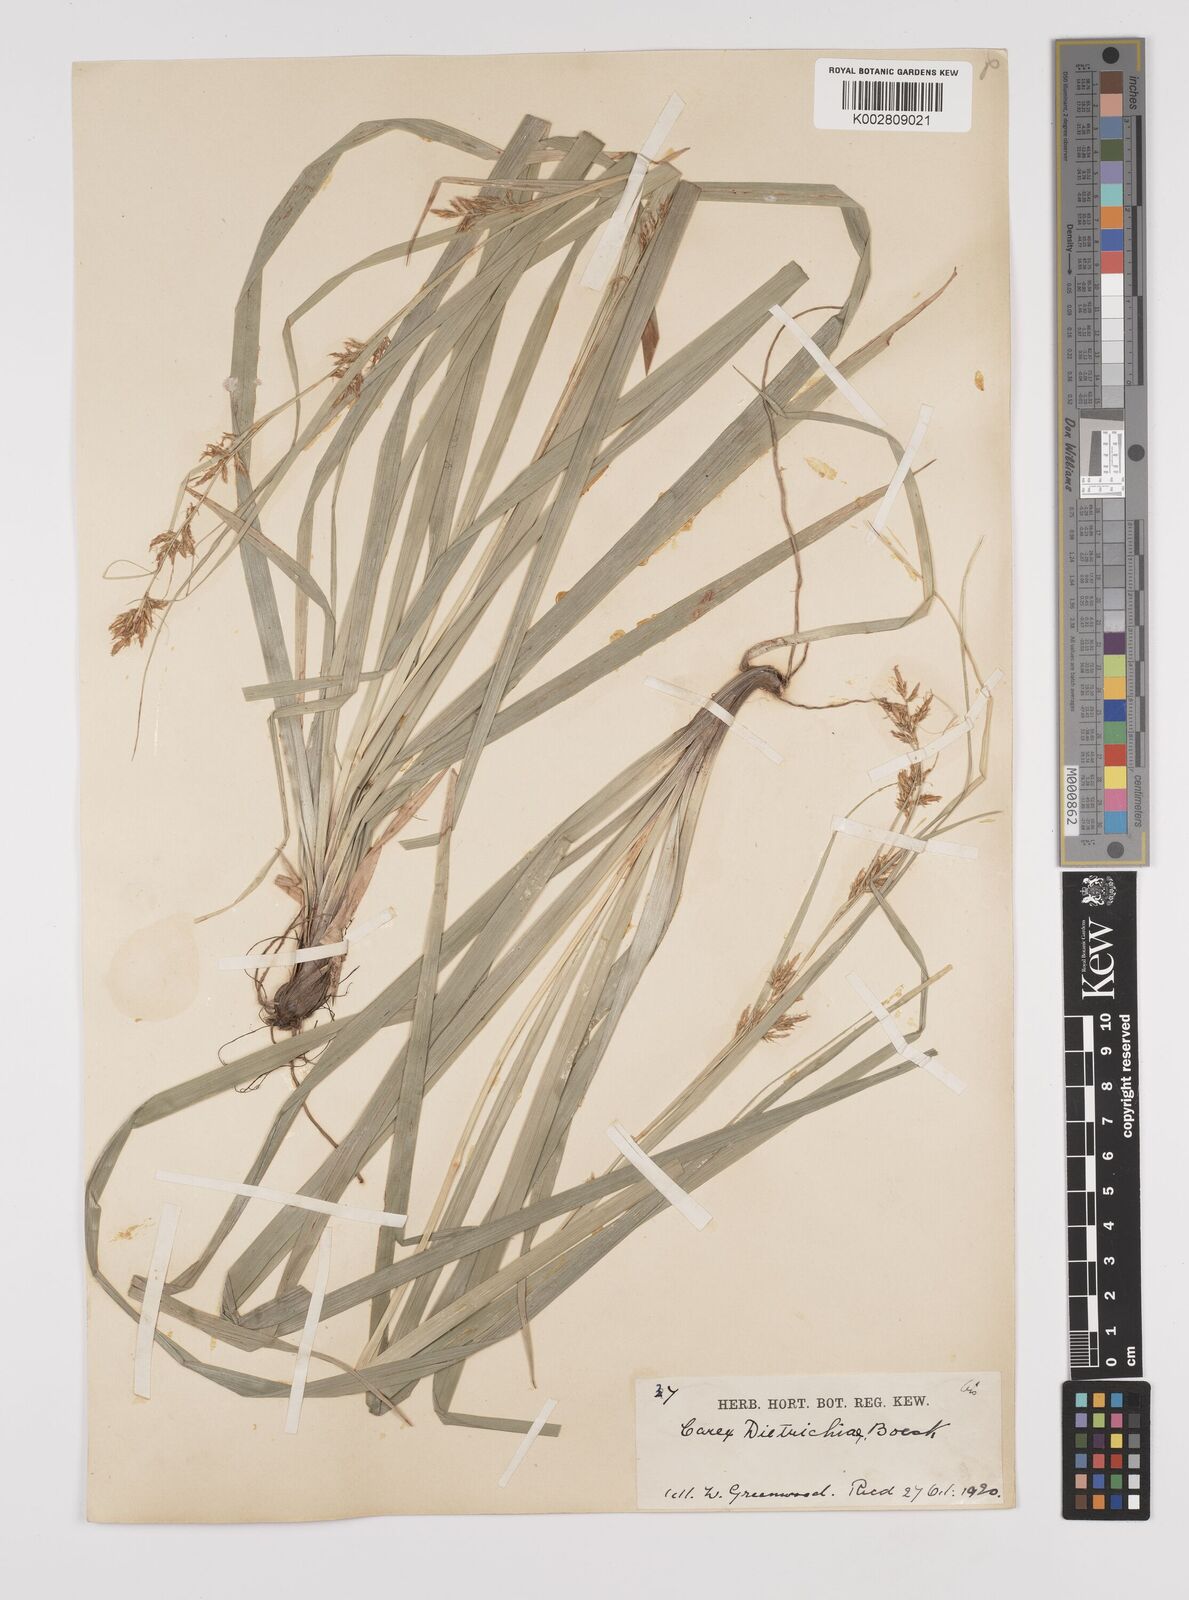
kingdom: Plantae
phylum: Tracheophyta
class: Liliopsida
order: Poales
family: Cyperaceae
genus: Carex
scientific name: Carex indica
